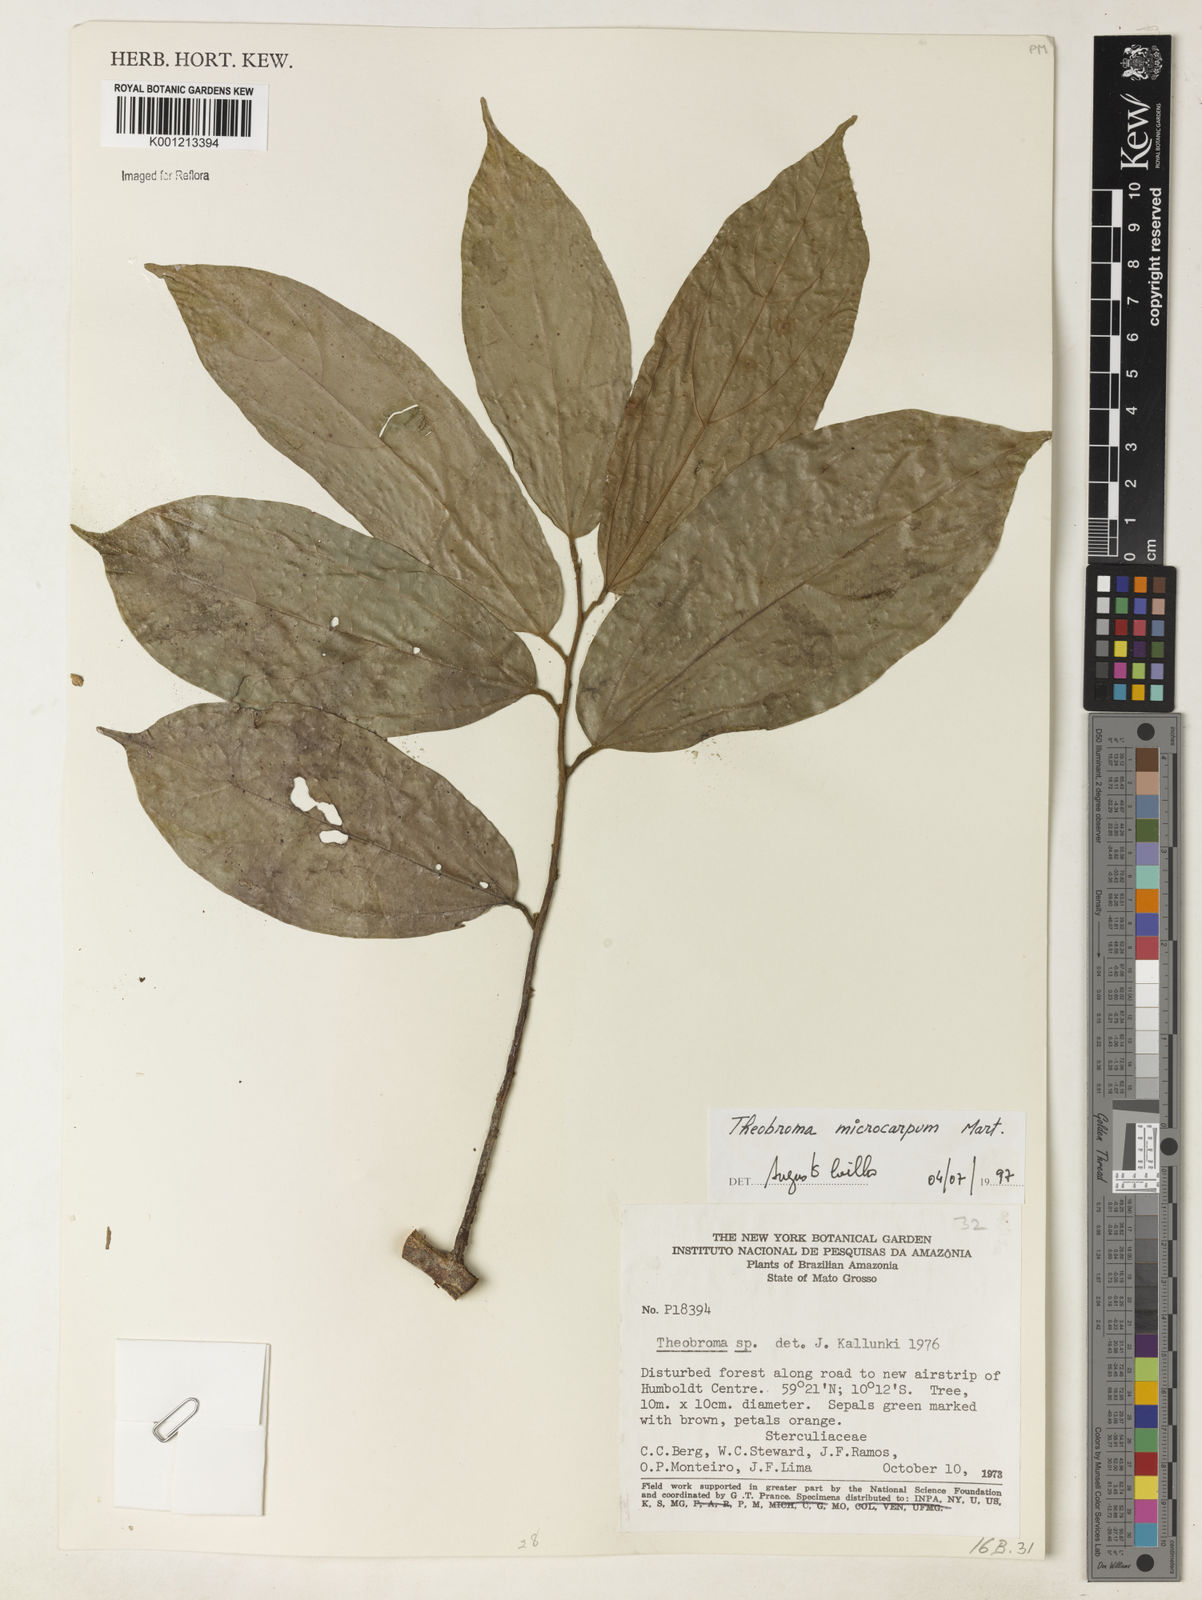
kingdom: Plantae
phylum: Tracheophyta
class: Magnoliopsida
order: Malvales
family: Malvaceae
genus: Theobroma
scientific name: Theobroma microcarpum
